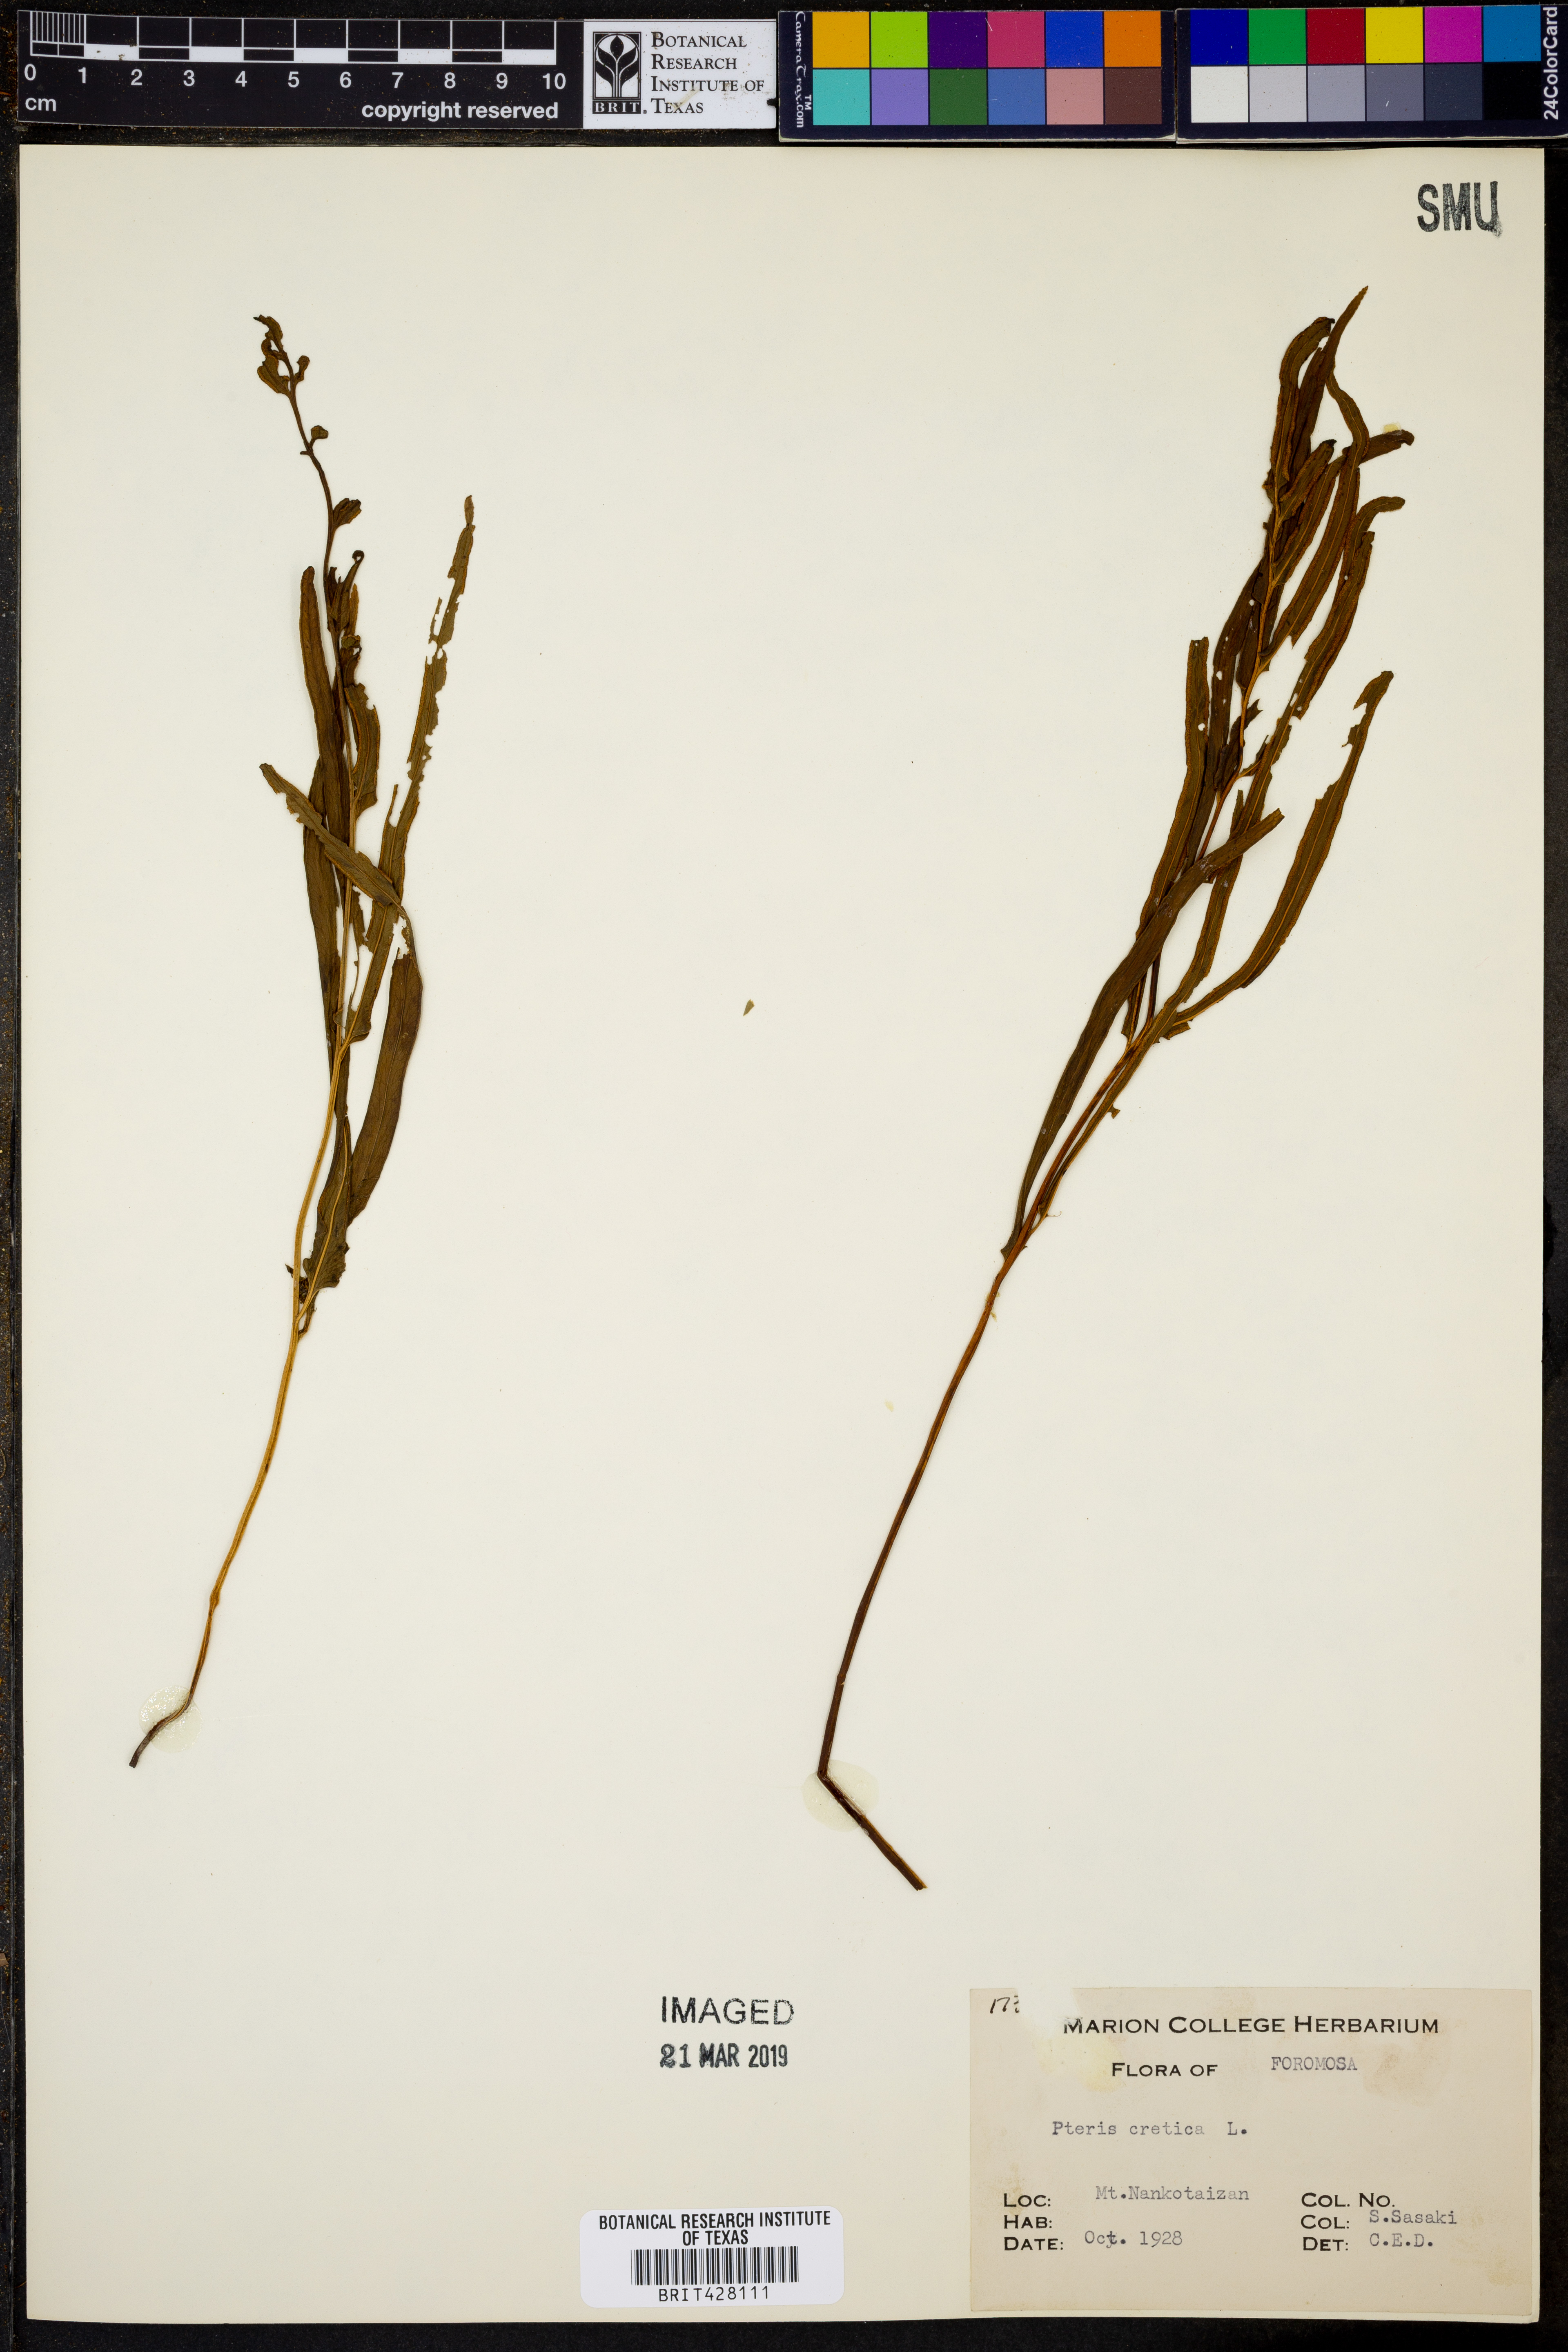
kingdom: Plantae
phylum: Tracheophyta
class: Polypodiopsida
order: Polypodiales
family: Pteridaceae
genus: Pteris
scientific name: Pteris cretica
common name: Ribbon fern
